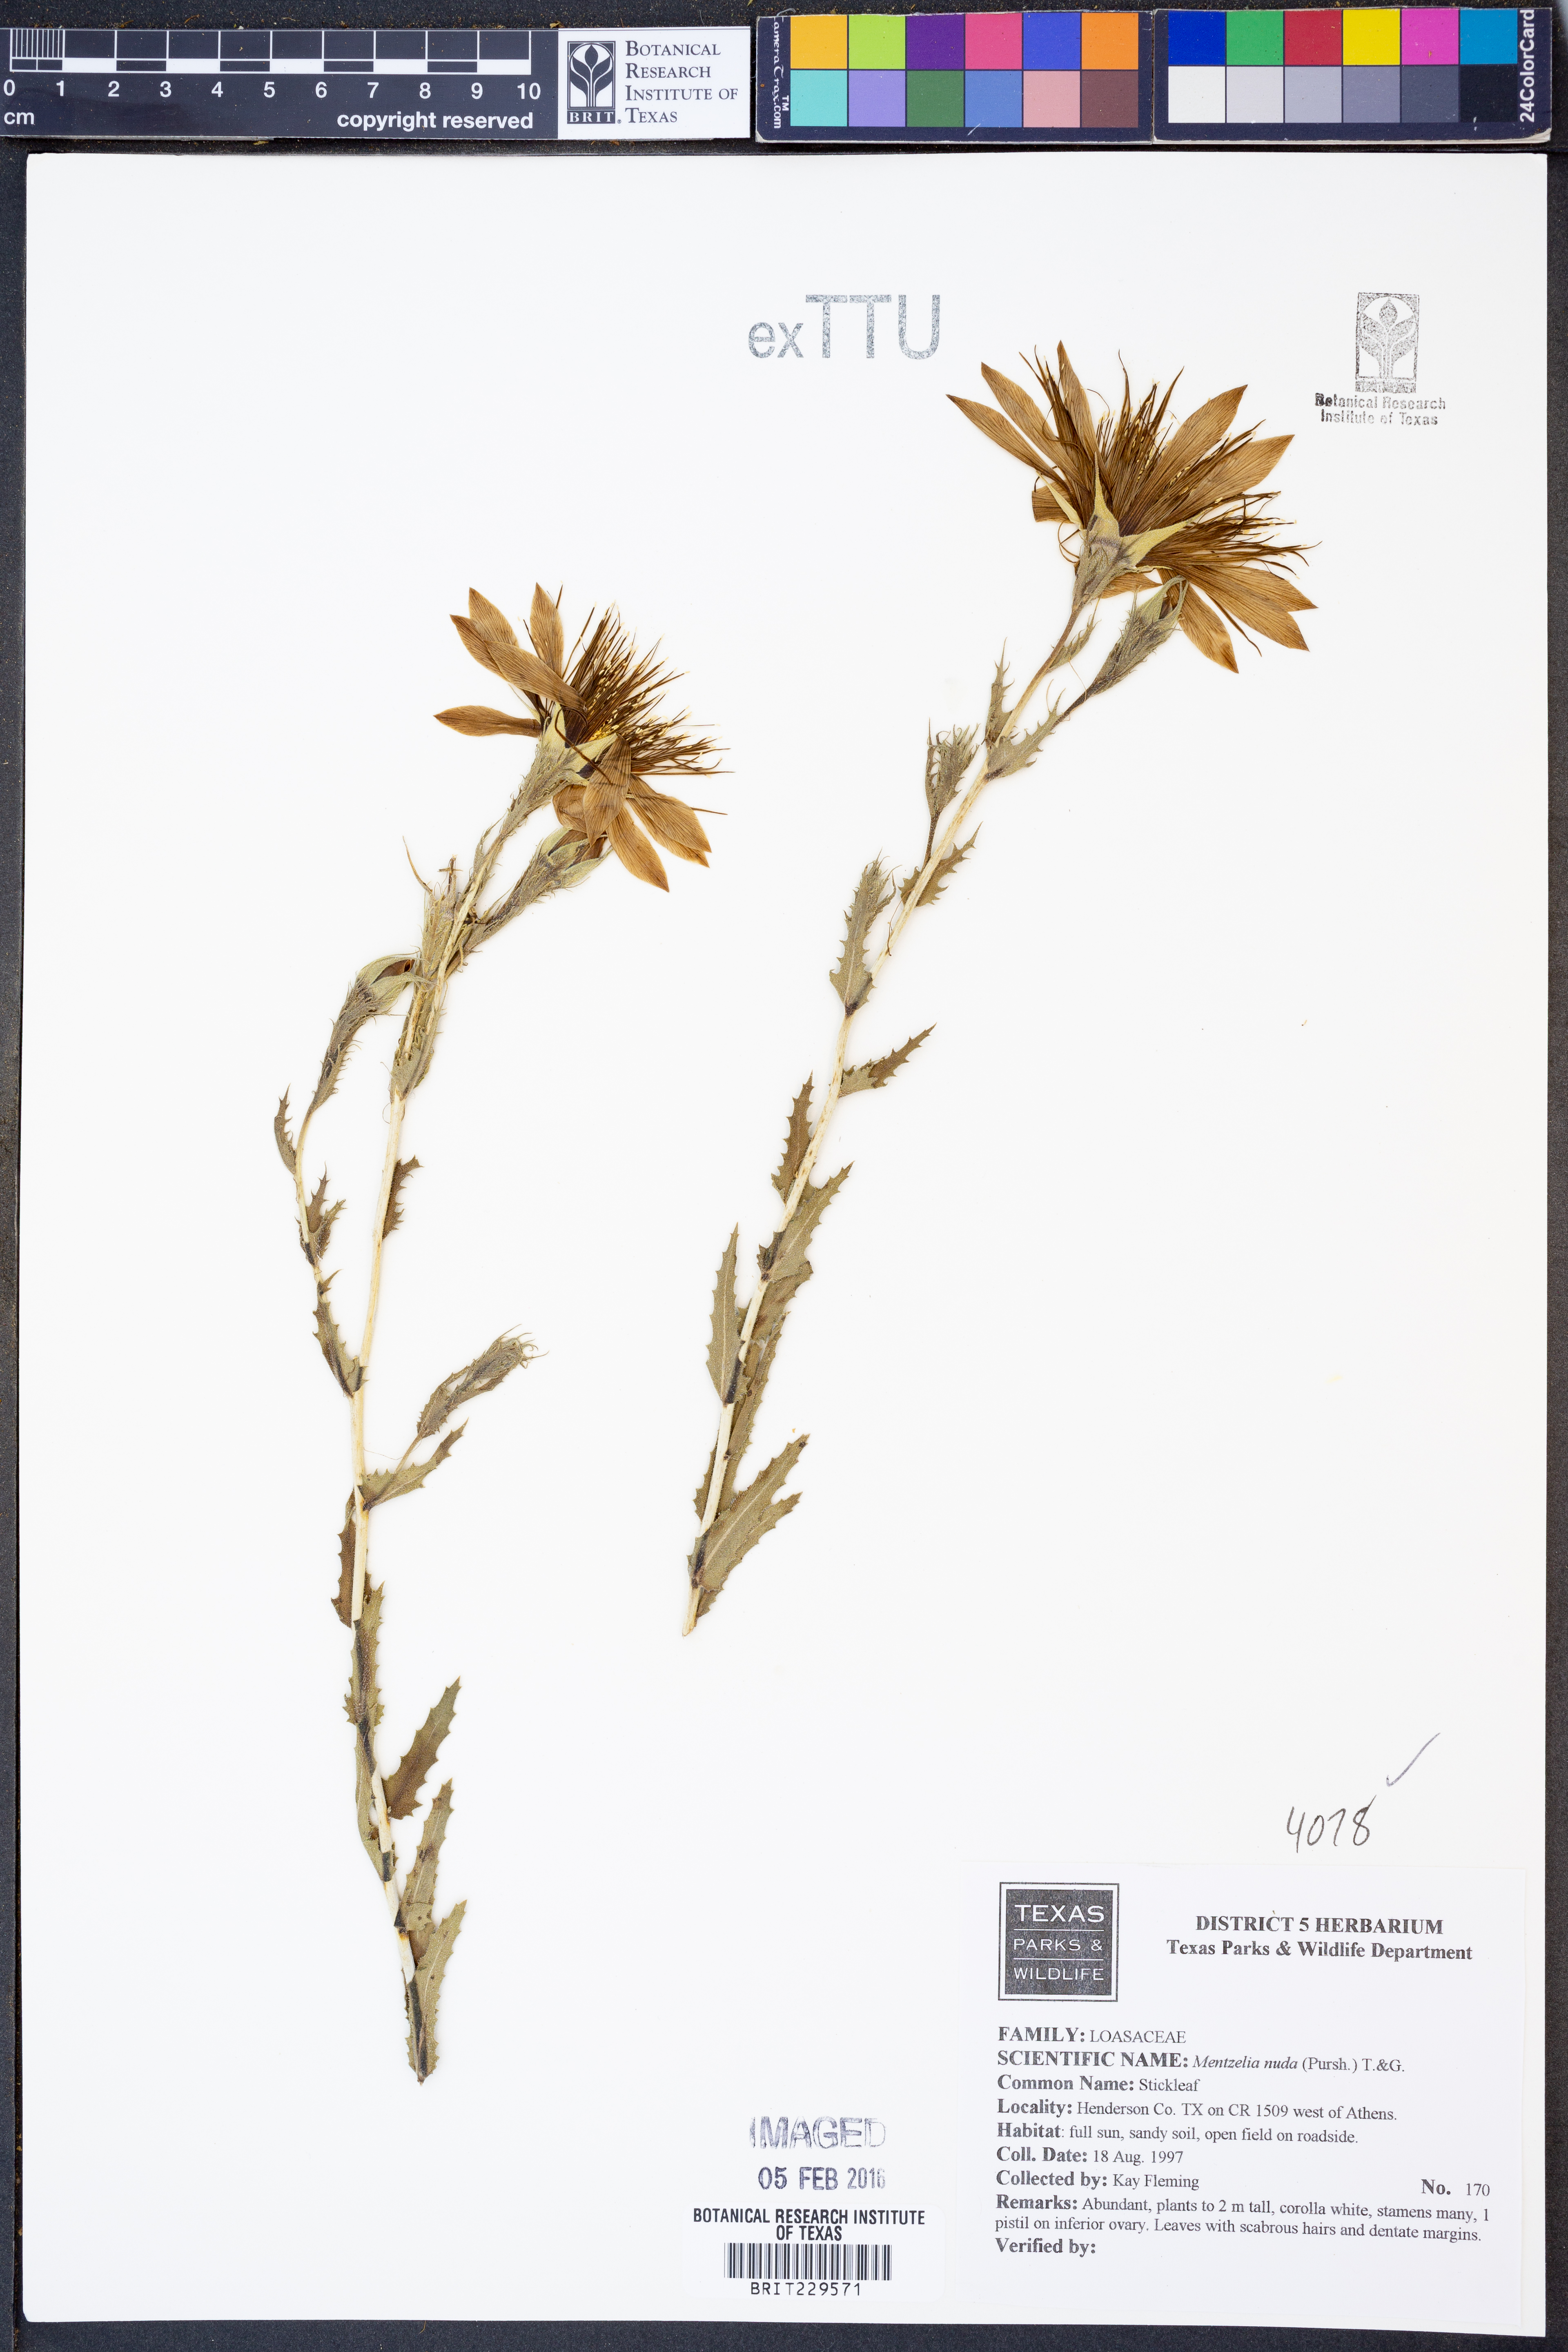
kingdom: Plantae
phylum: Tracheophyta
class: Magnoliopsida
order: Cornales
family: Loasaceae
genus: Mentzelia
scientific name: Mentzelia nuda
